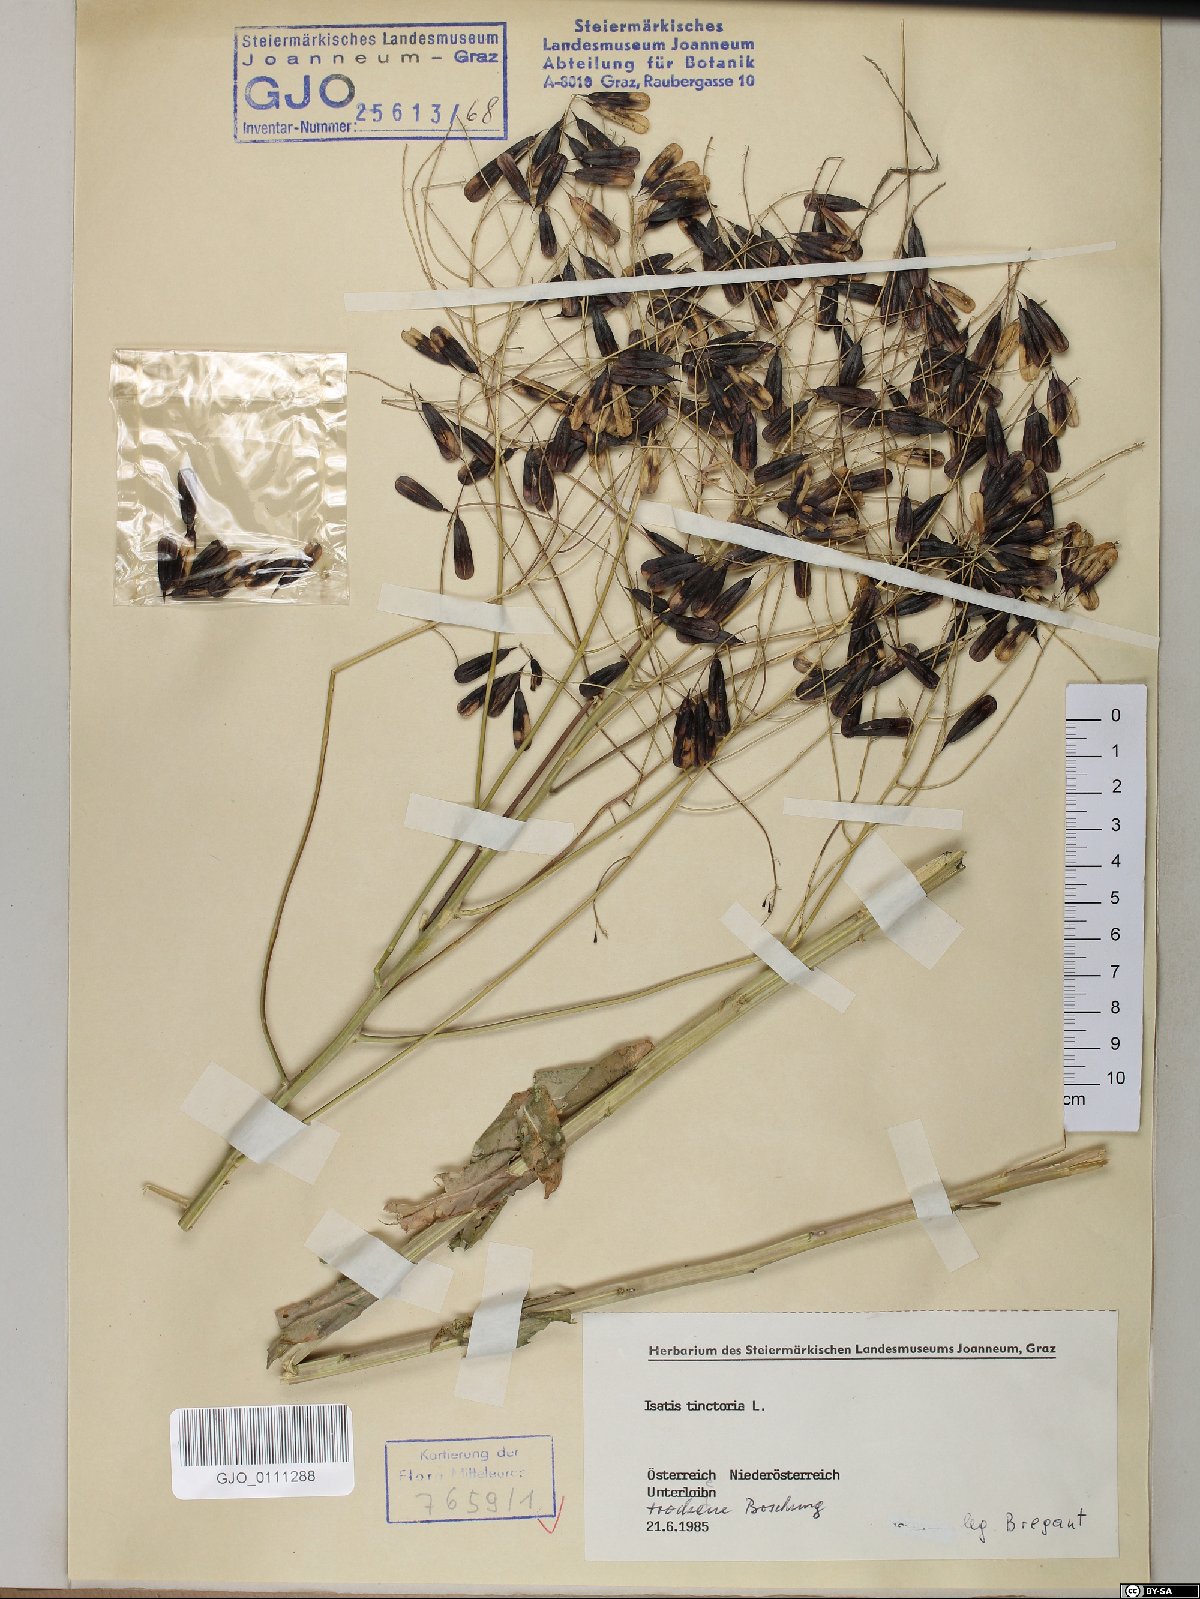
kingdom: Plantae
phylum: Tracheophyta
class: Magnoliopsida
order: Brassicales
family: Brassicaceae
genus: Isatis
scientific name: Isatis tinctoria
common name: Woad
